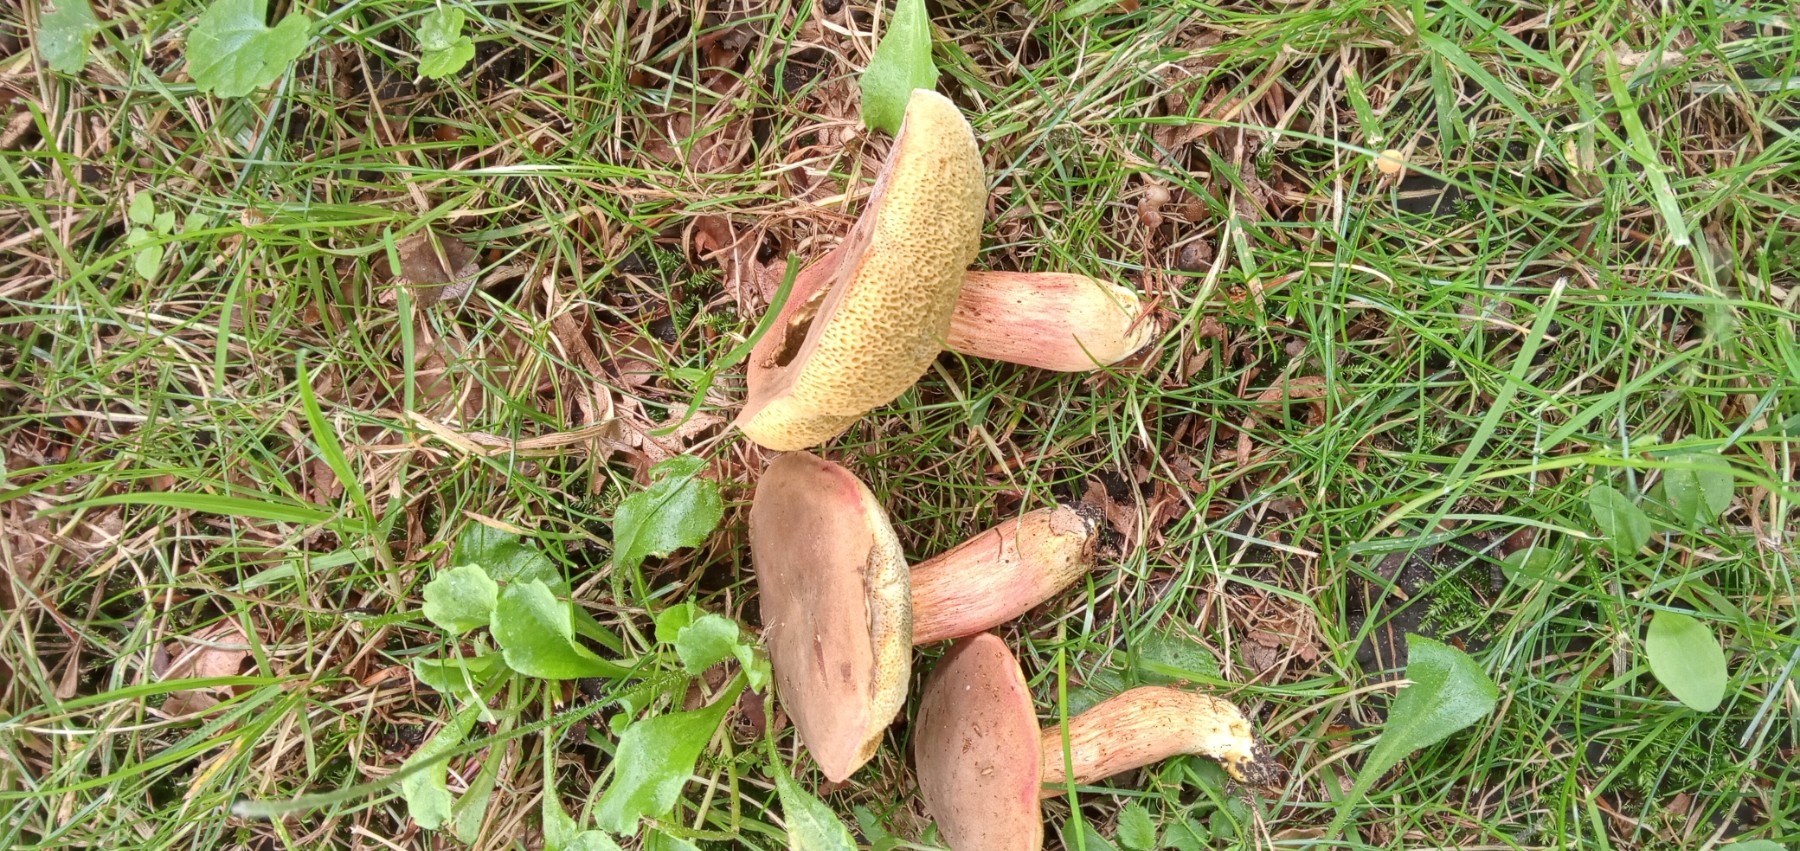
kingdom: Fungi
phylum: Basidiomycota
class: Agaricomycetes
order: Boletales
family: Boletaceae
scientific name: Boletaceae
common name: rørhatfamilien
